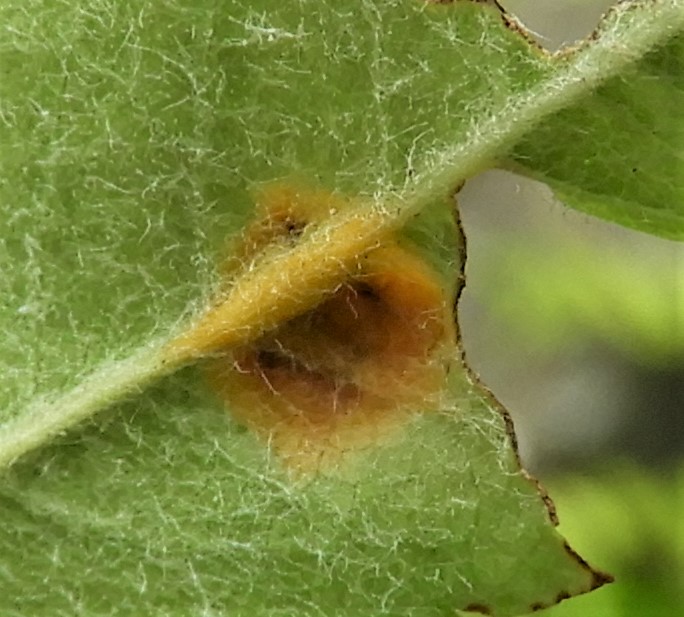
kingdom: Fungi
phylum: Basidiomycota
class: Pucciniomycetes
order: Pucciniales
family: Gymnosporangiaceae
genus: Gymnosporangium
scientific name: Gymnosporangium cornutum
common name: rønnehorn-bævrerust
